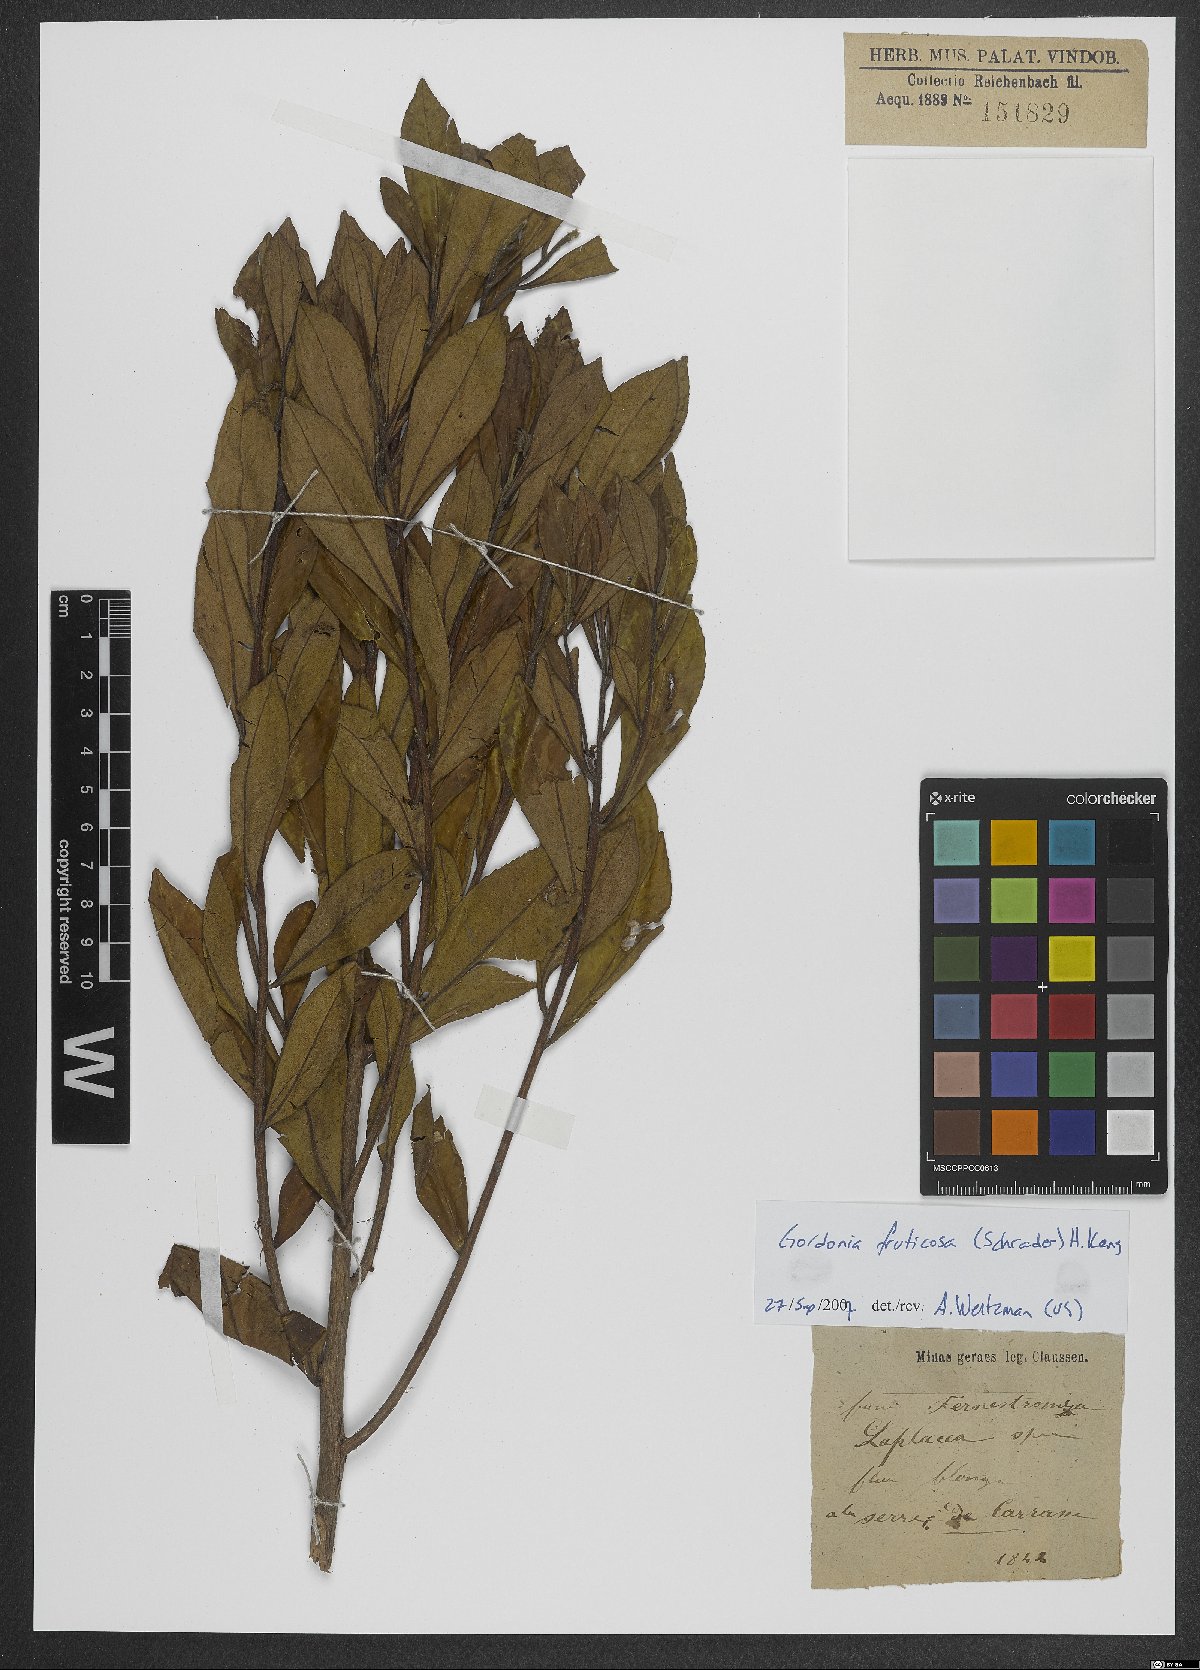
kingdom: Plantae
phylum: Tracheophyta
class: Magnoliopsida
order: Ericales
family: Theaceae
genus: Gordonia
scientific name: Gordonia fruticosa
